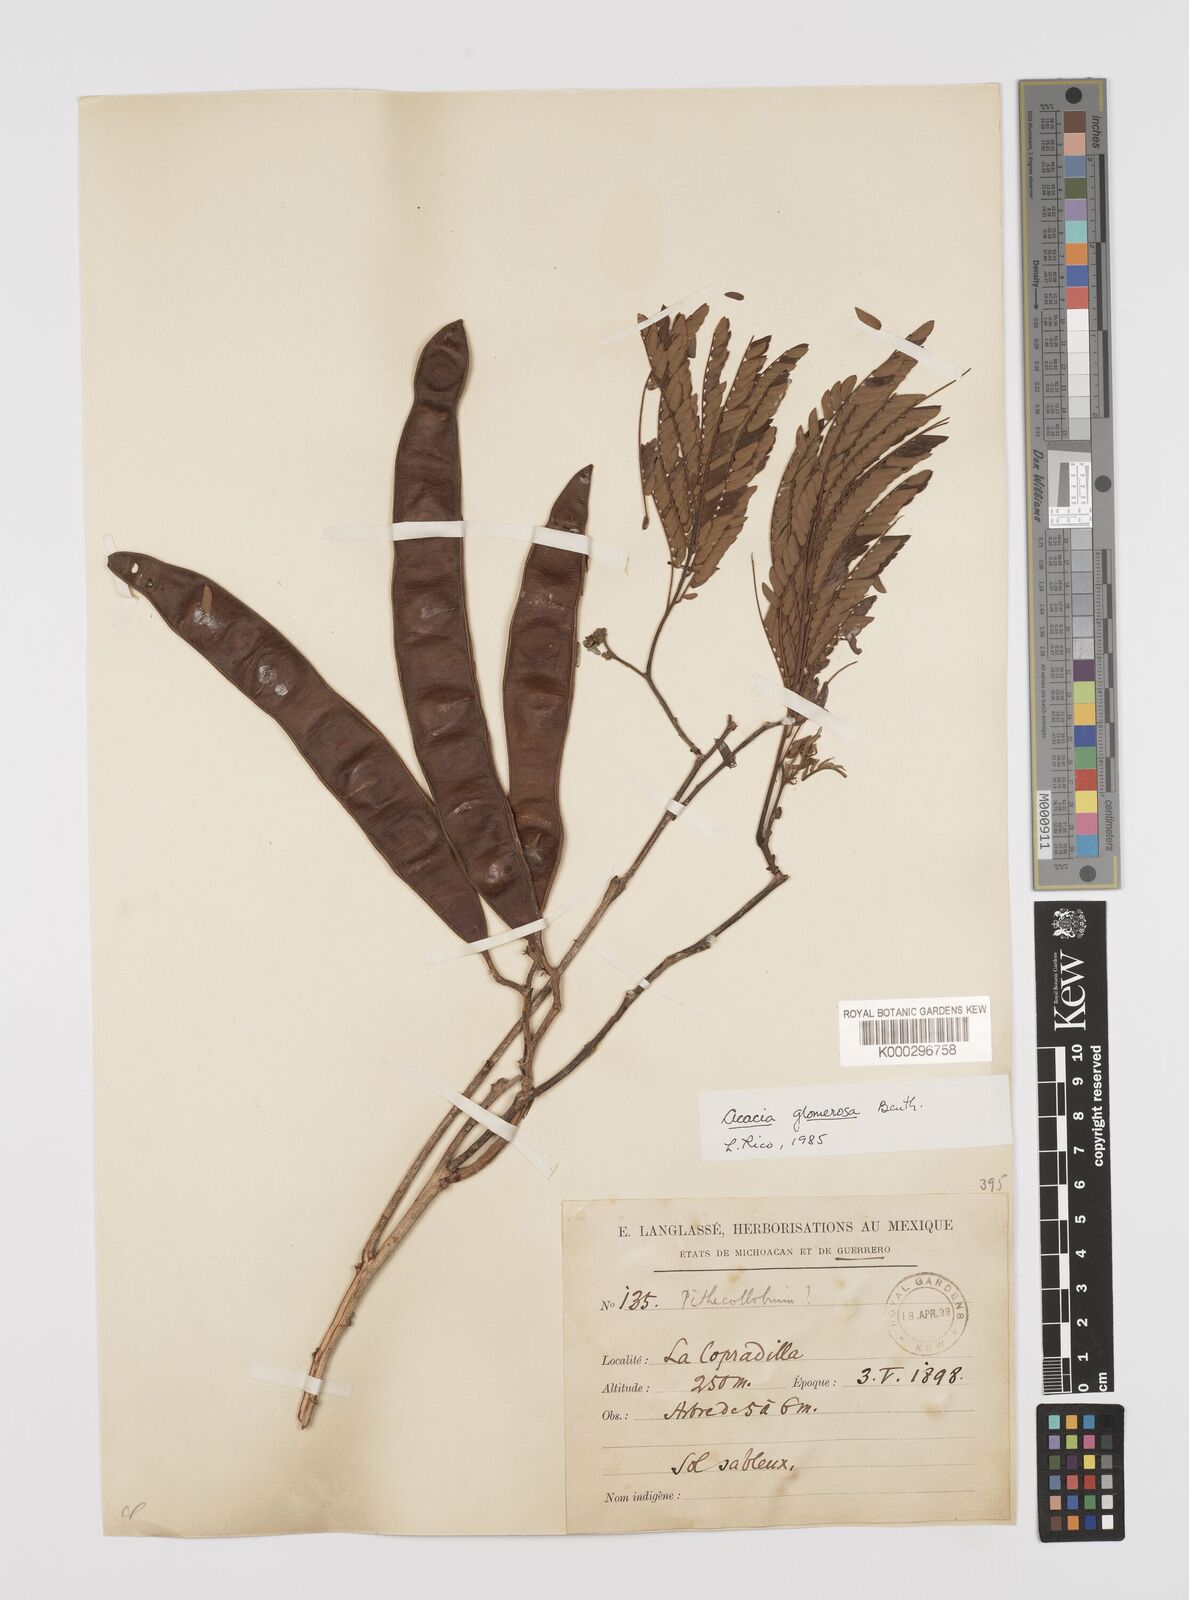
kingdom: Plantae
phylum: Tracheophyta
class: Magnoliopsida
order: Fabales
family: Fabaceae
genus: Senegalia
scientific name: Senegalia polyphylla
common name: White-tamarind
